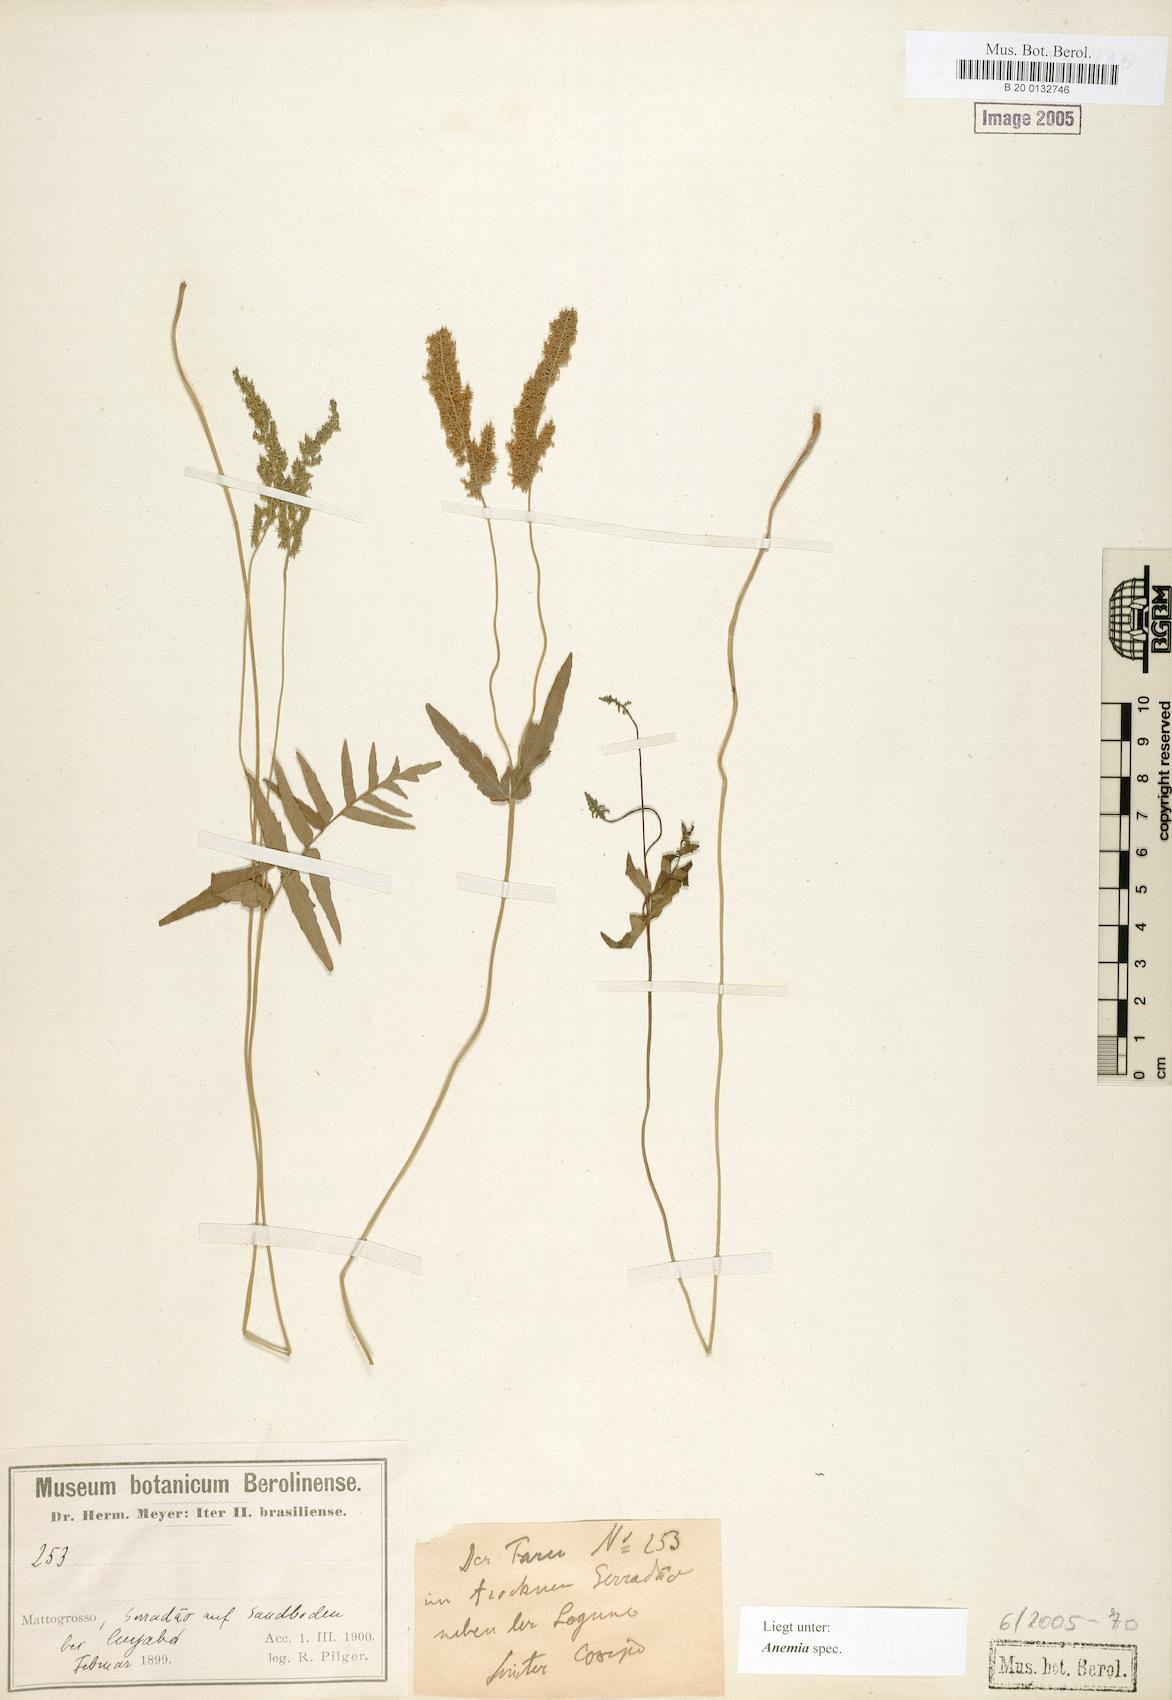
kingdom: Plantae
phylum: Tracheophyta
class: Polypodiopsida
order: Schizaeales
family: Anemiaceae
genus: Anemia
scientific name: Anemia
